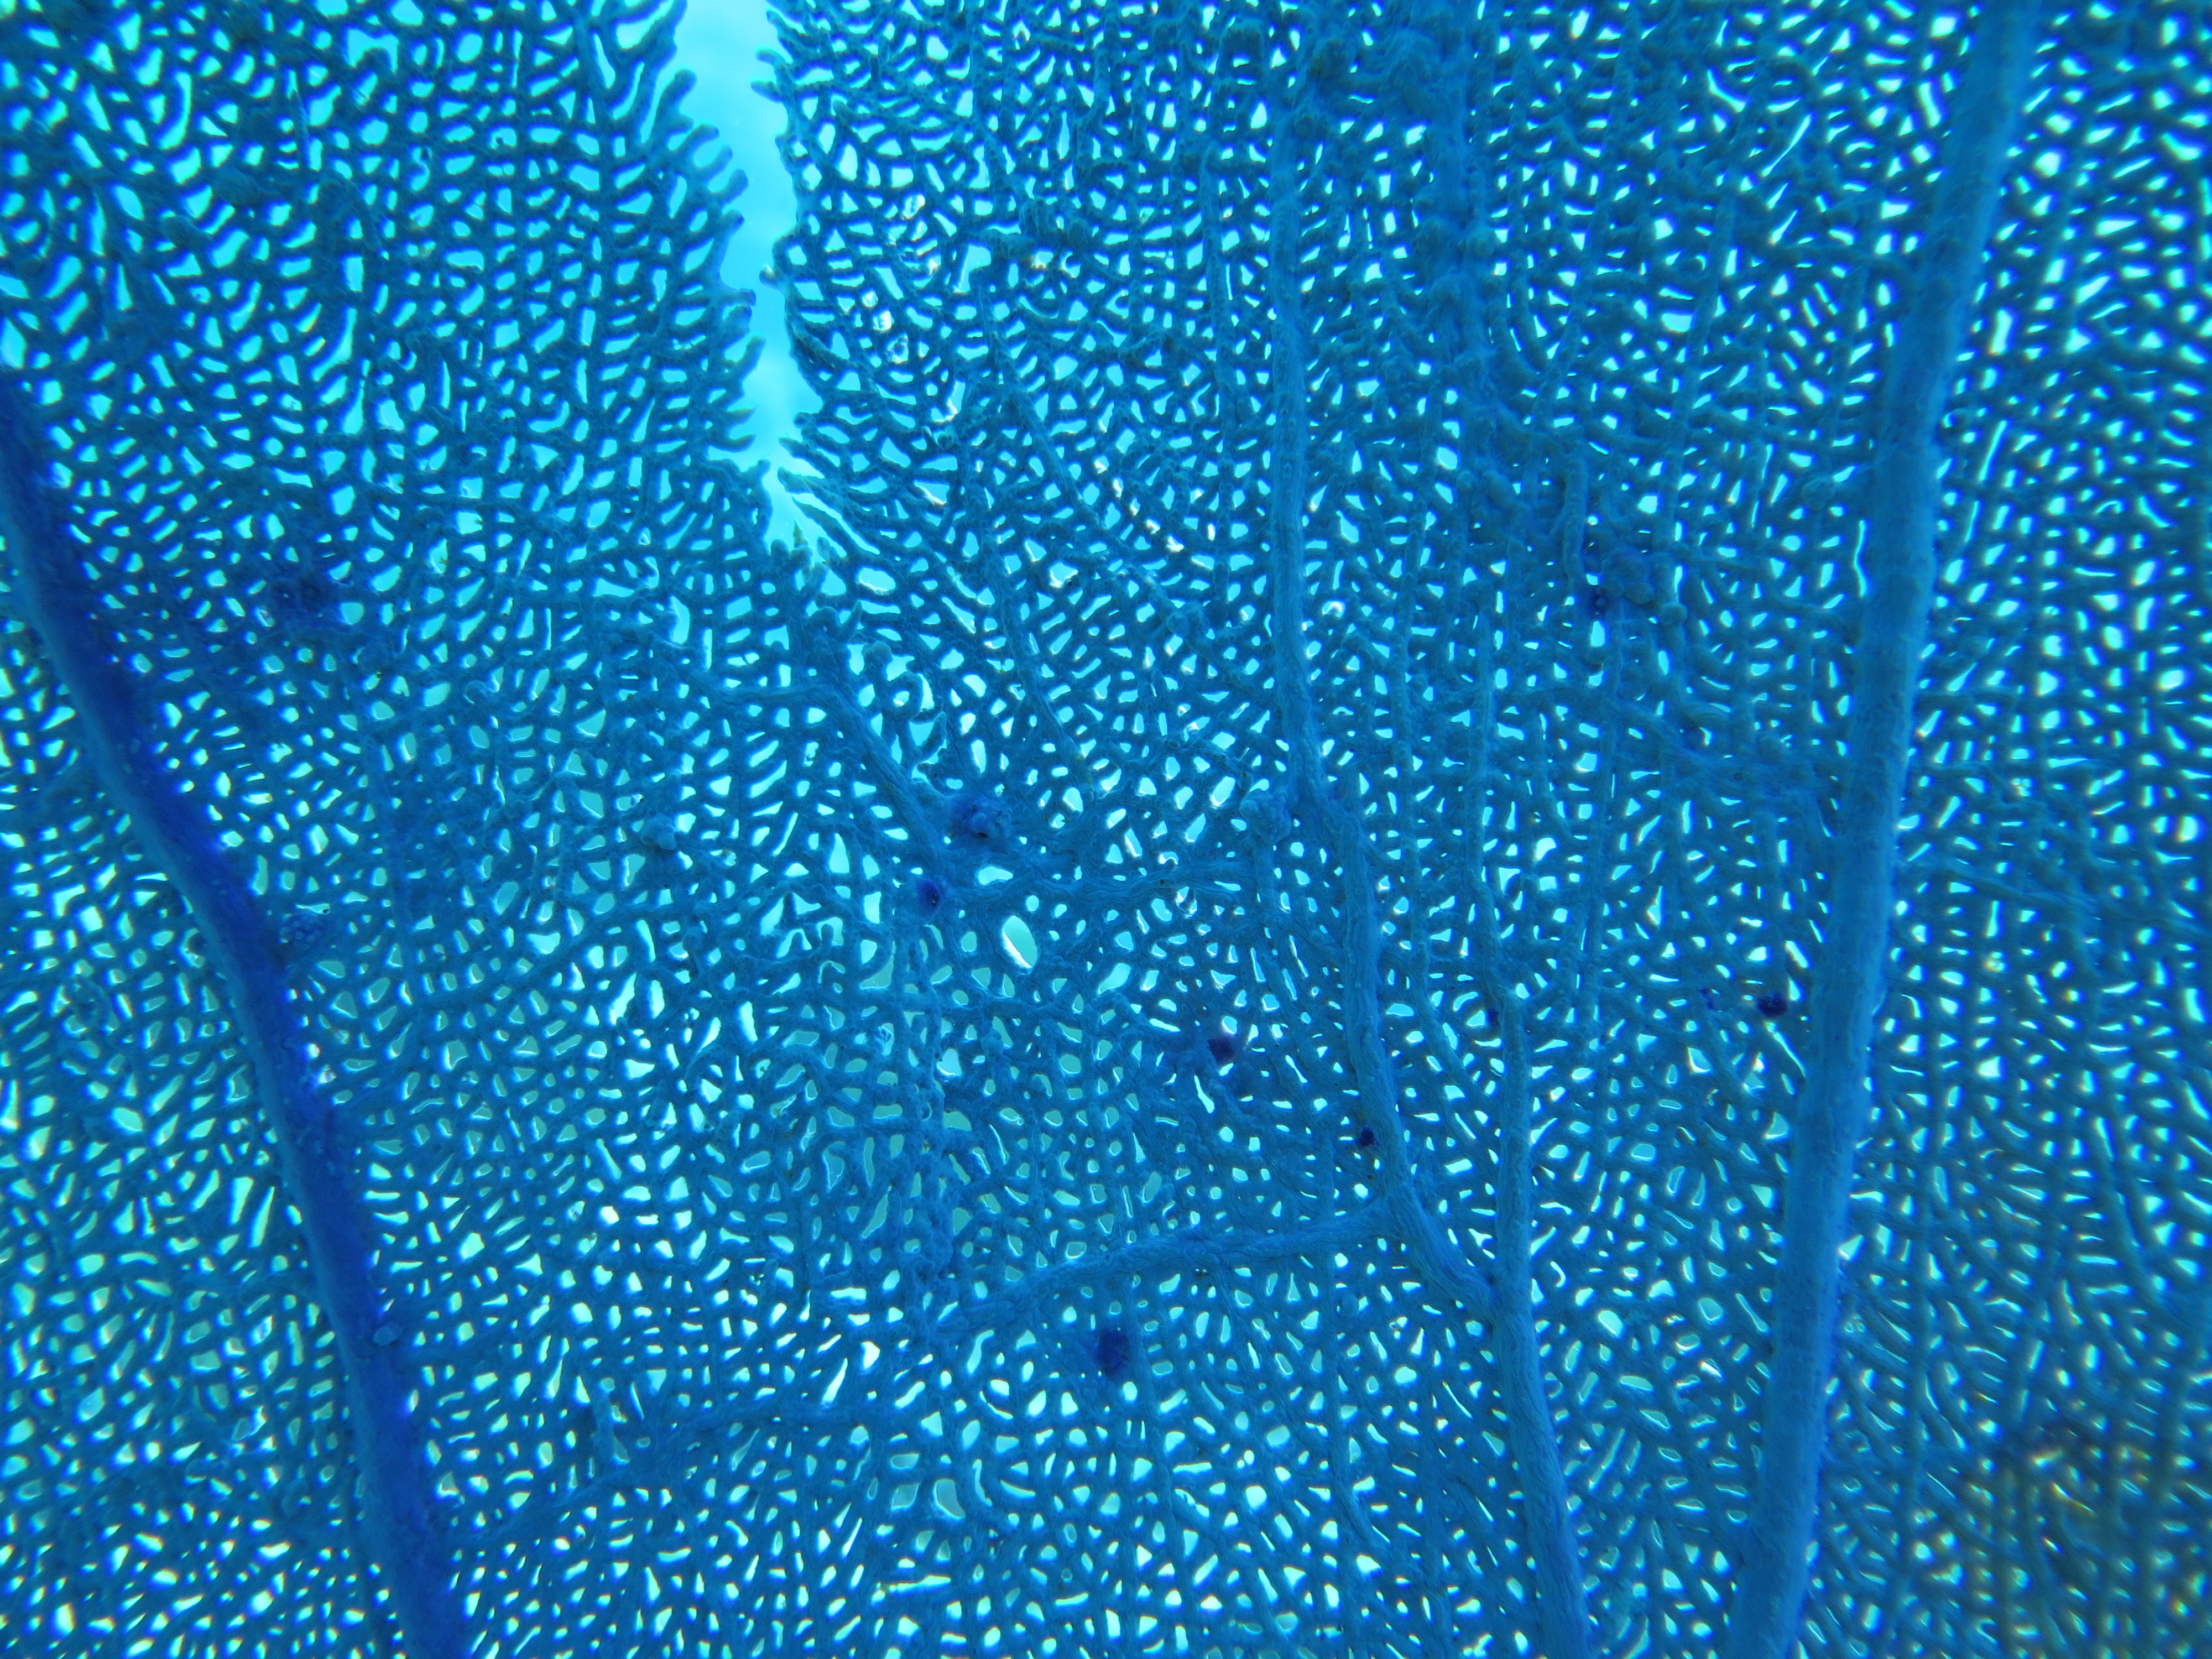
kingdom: Animalia
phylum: Cnidaria
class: Anthozoa
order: Malacalcyonacea
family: Gorgoniidae
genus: Gorgonia
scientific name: Gorgonia
